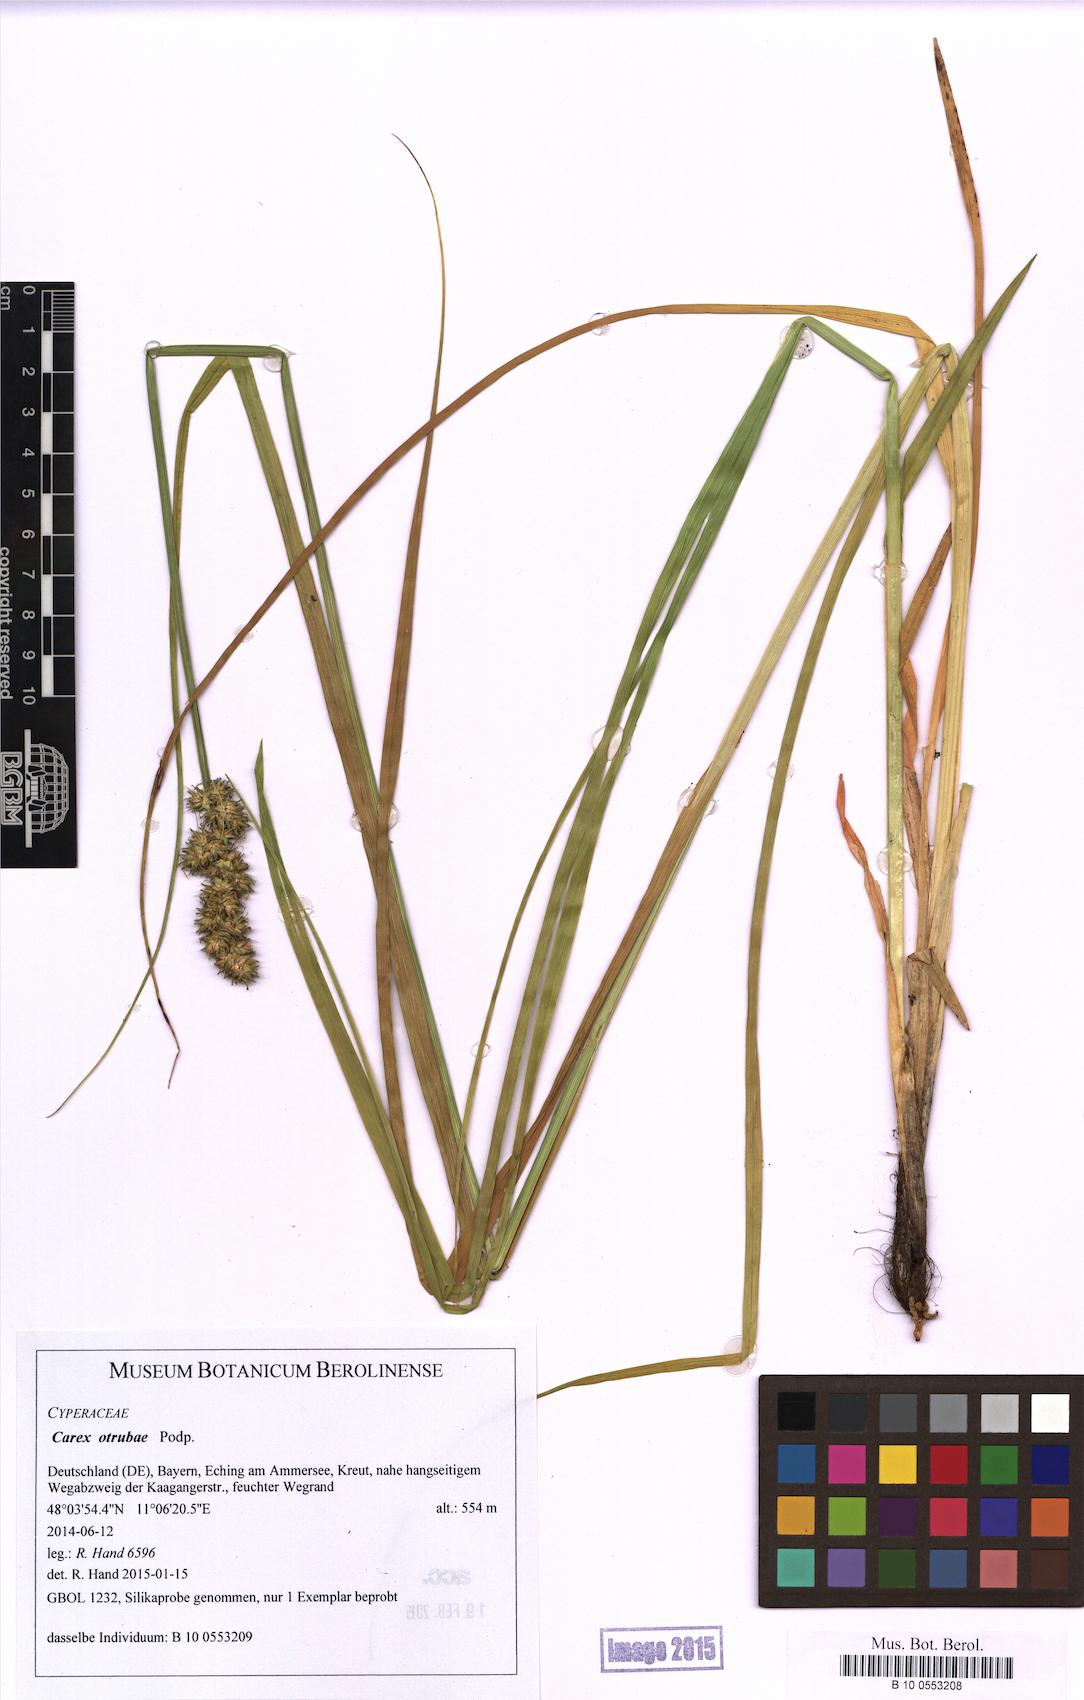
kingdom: Plantae
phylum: Tracheophyta
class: Liliopsida
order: Poales
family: Cyperaceae
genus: Carex
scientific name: Carex otrubae
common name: False fox-sedge
